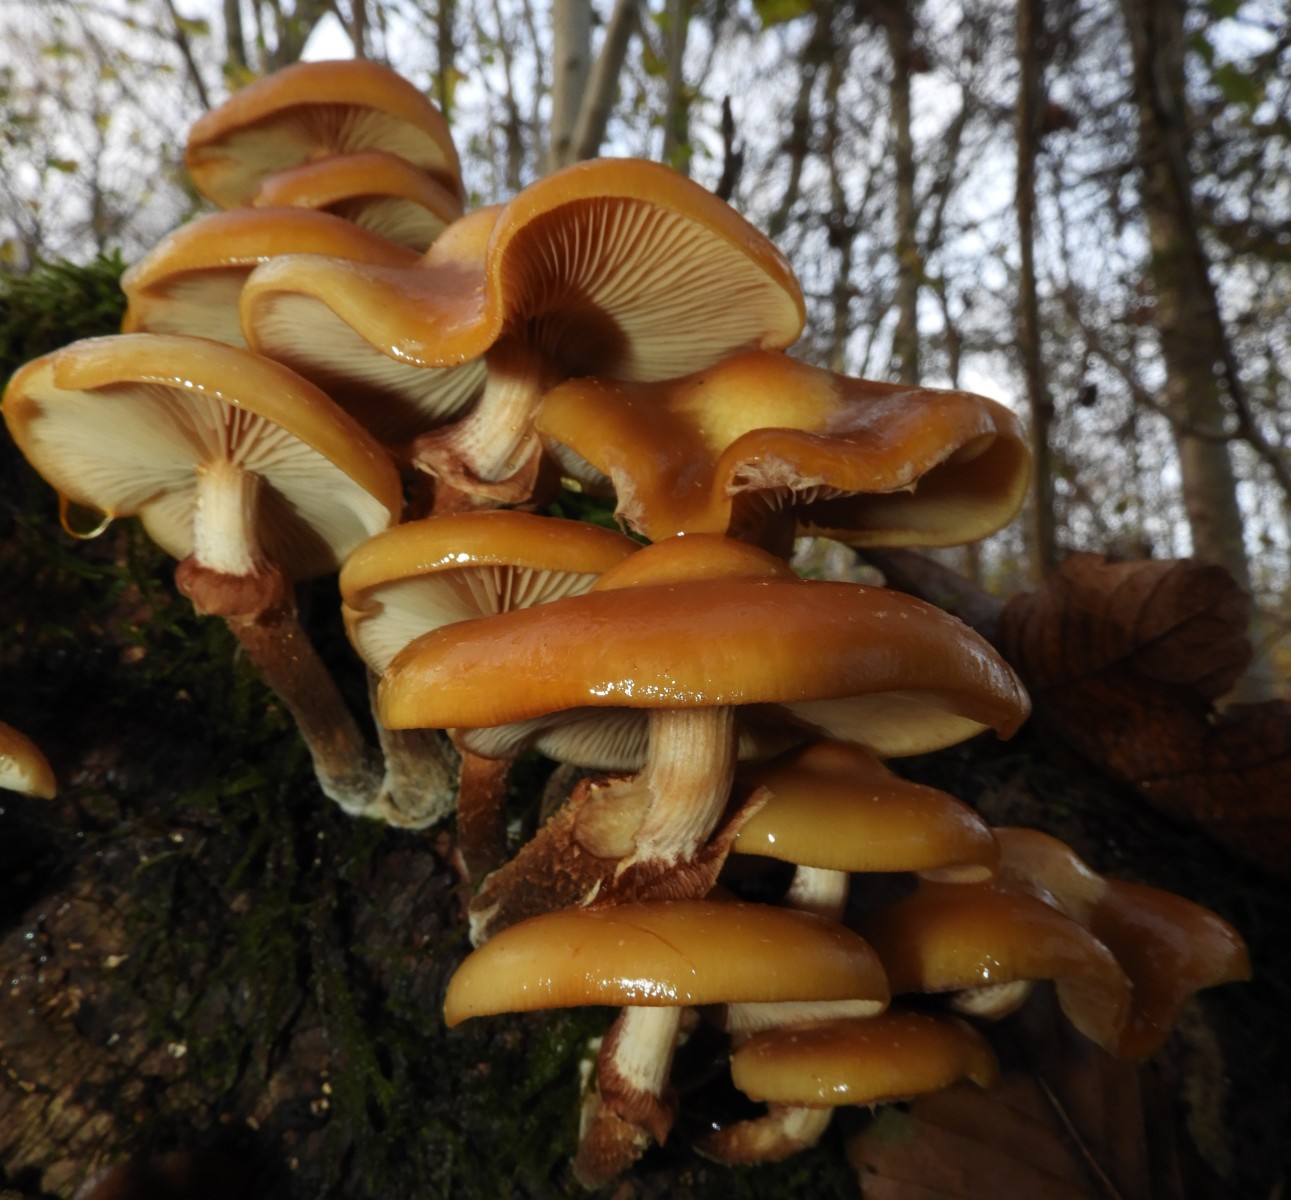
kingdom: Fungi
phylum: Basidiomycota
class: Agaricomycetes
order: Agaricales
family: Strophariaceae
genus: Kuehneromyces
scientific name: Kuehneromyces mutabilis
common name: foranderlig skælhat
